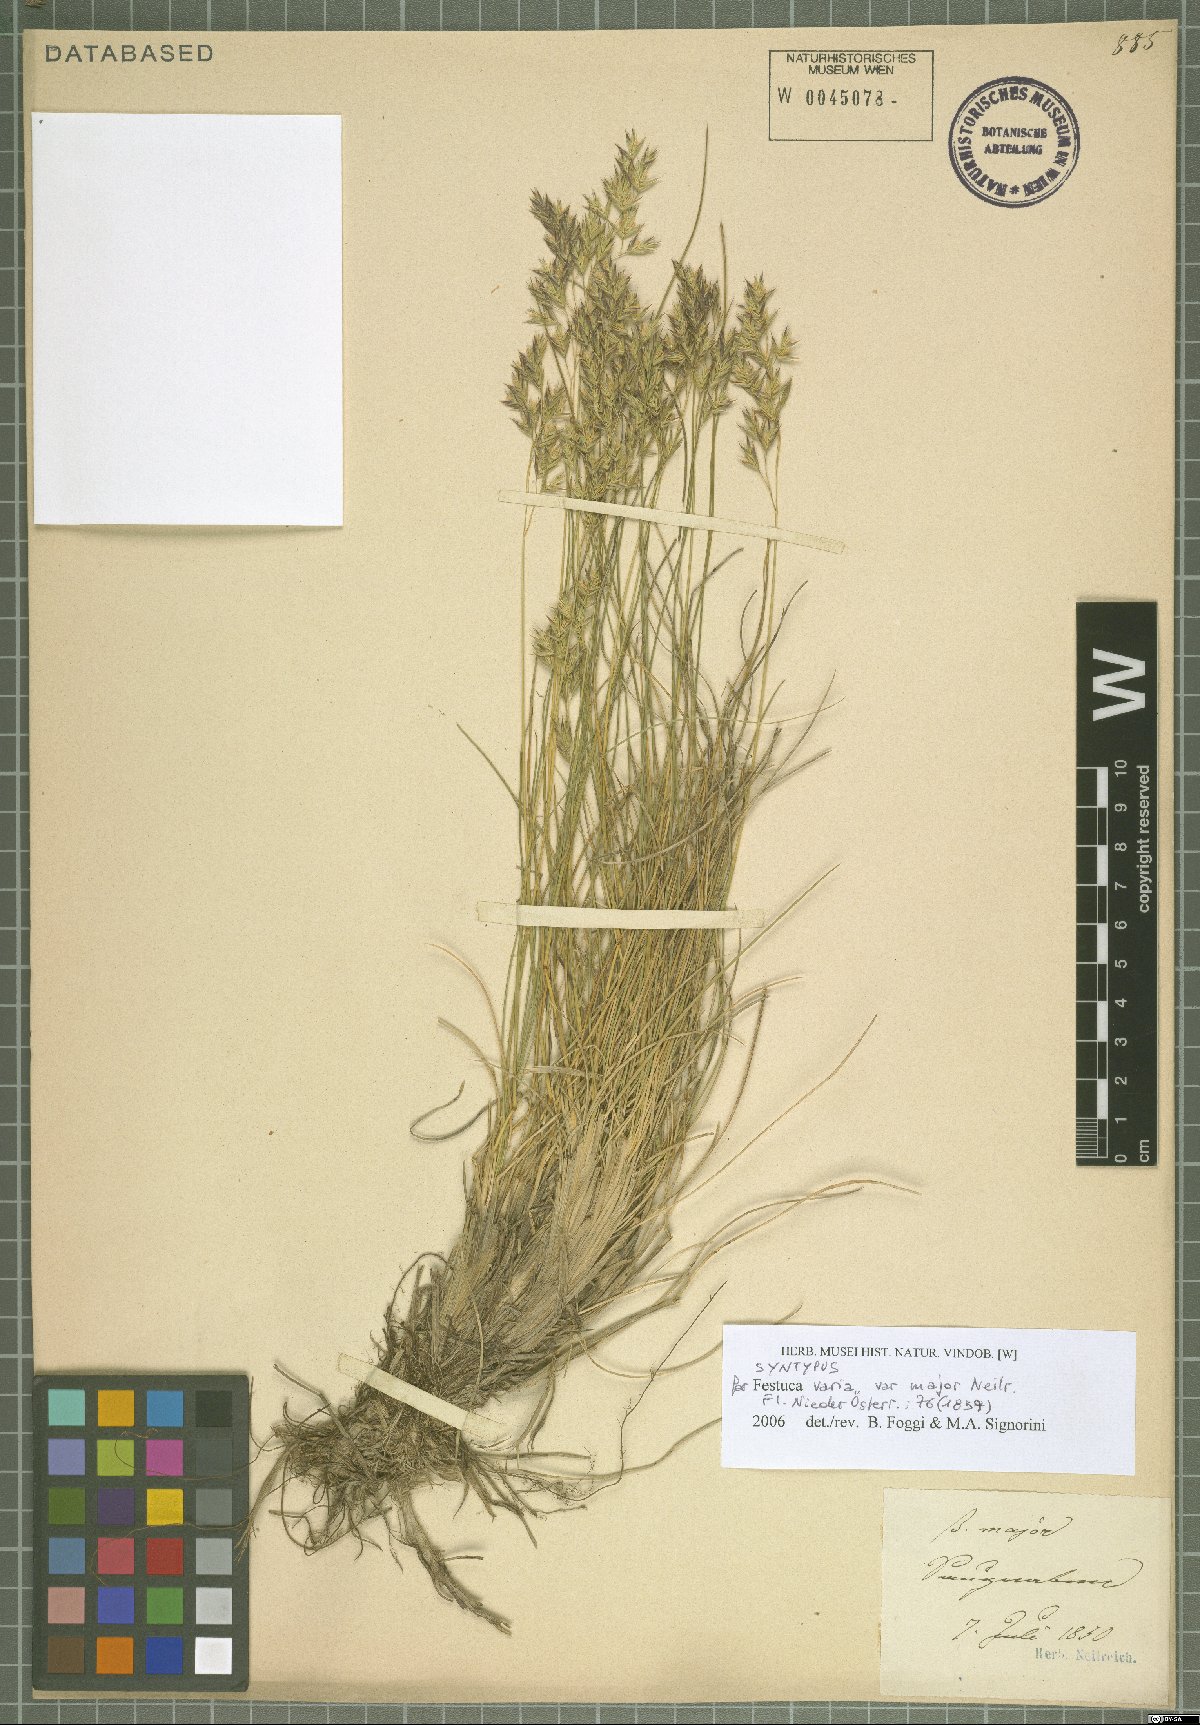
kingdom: Plantae
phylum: Tracheophyta
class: Liliopsida
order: Poales
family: Poaceae
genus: Festuca
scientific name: Festuca varia
